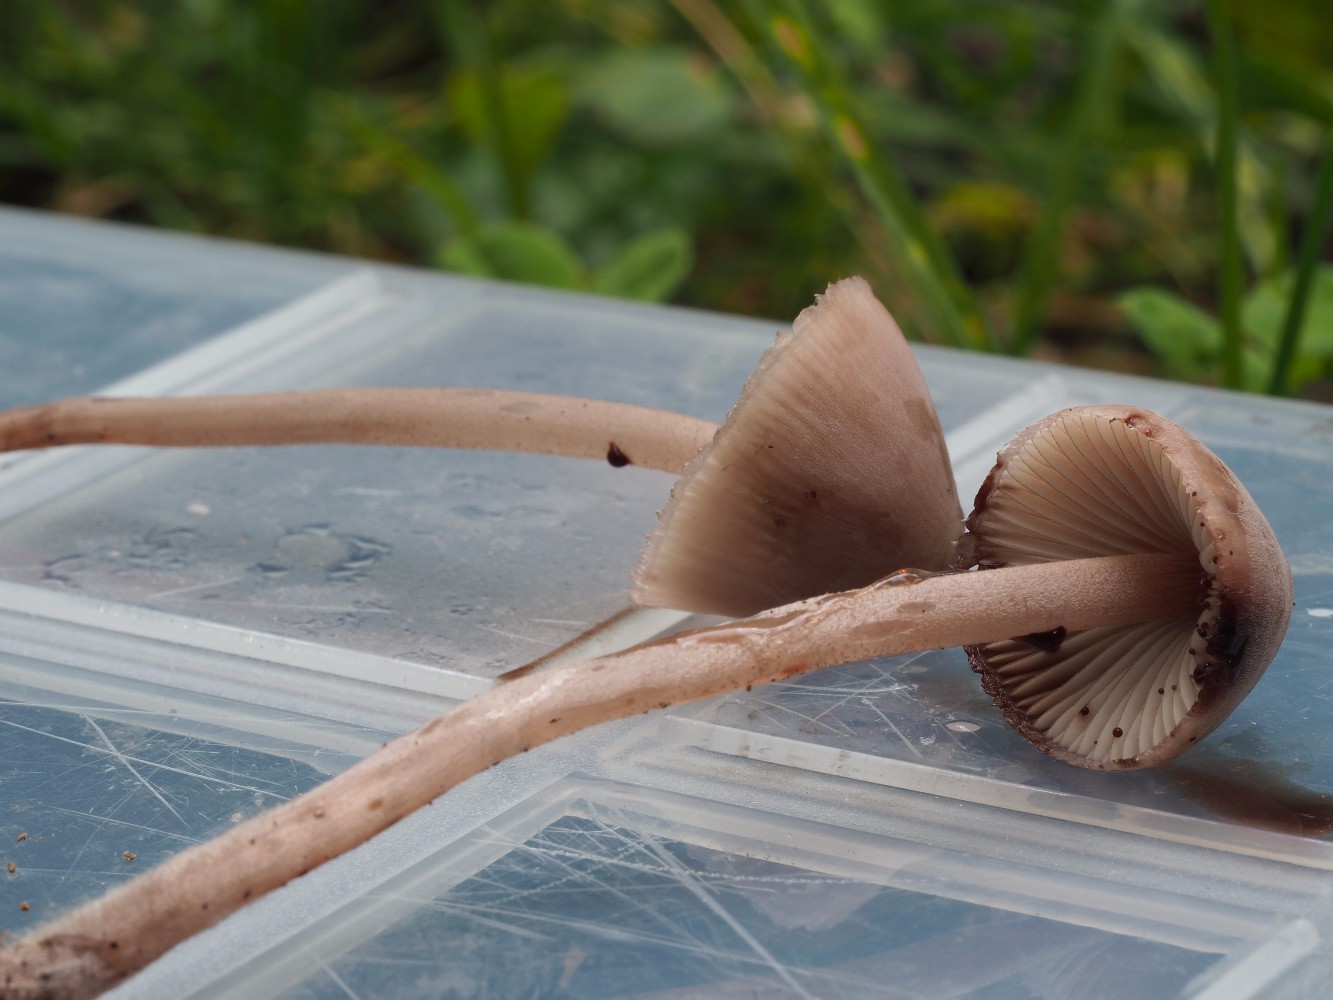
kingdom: Fungi
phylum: Basidiomycota
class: Agaricomycetes
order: Agaricales
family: Mycenaceae
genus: Mycena
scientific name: Mycena haematopus
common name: blødende huesvamp
